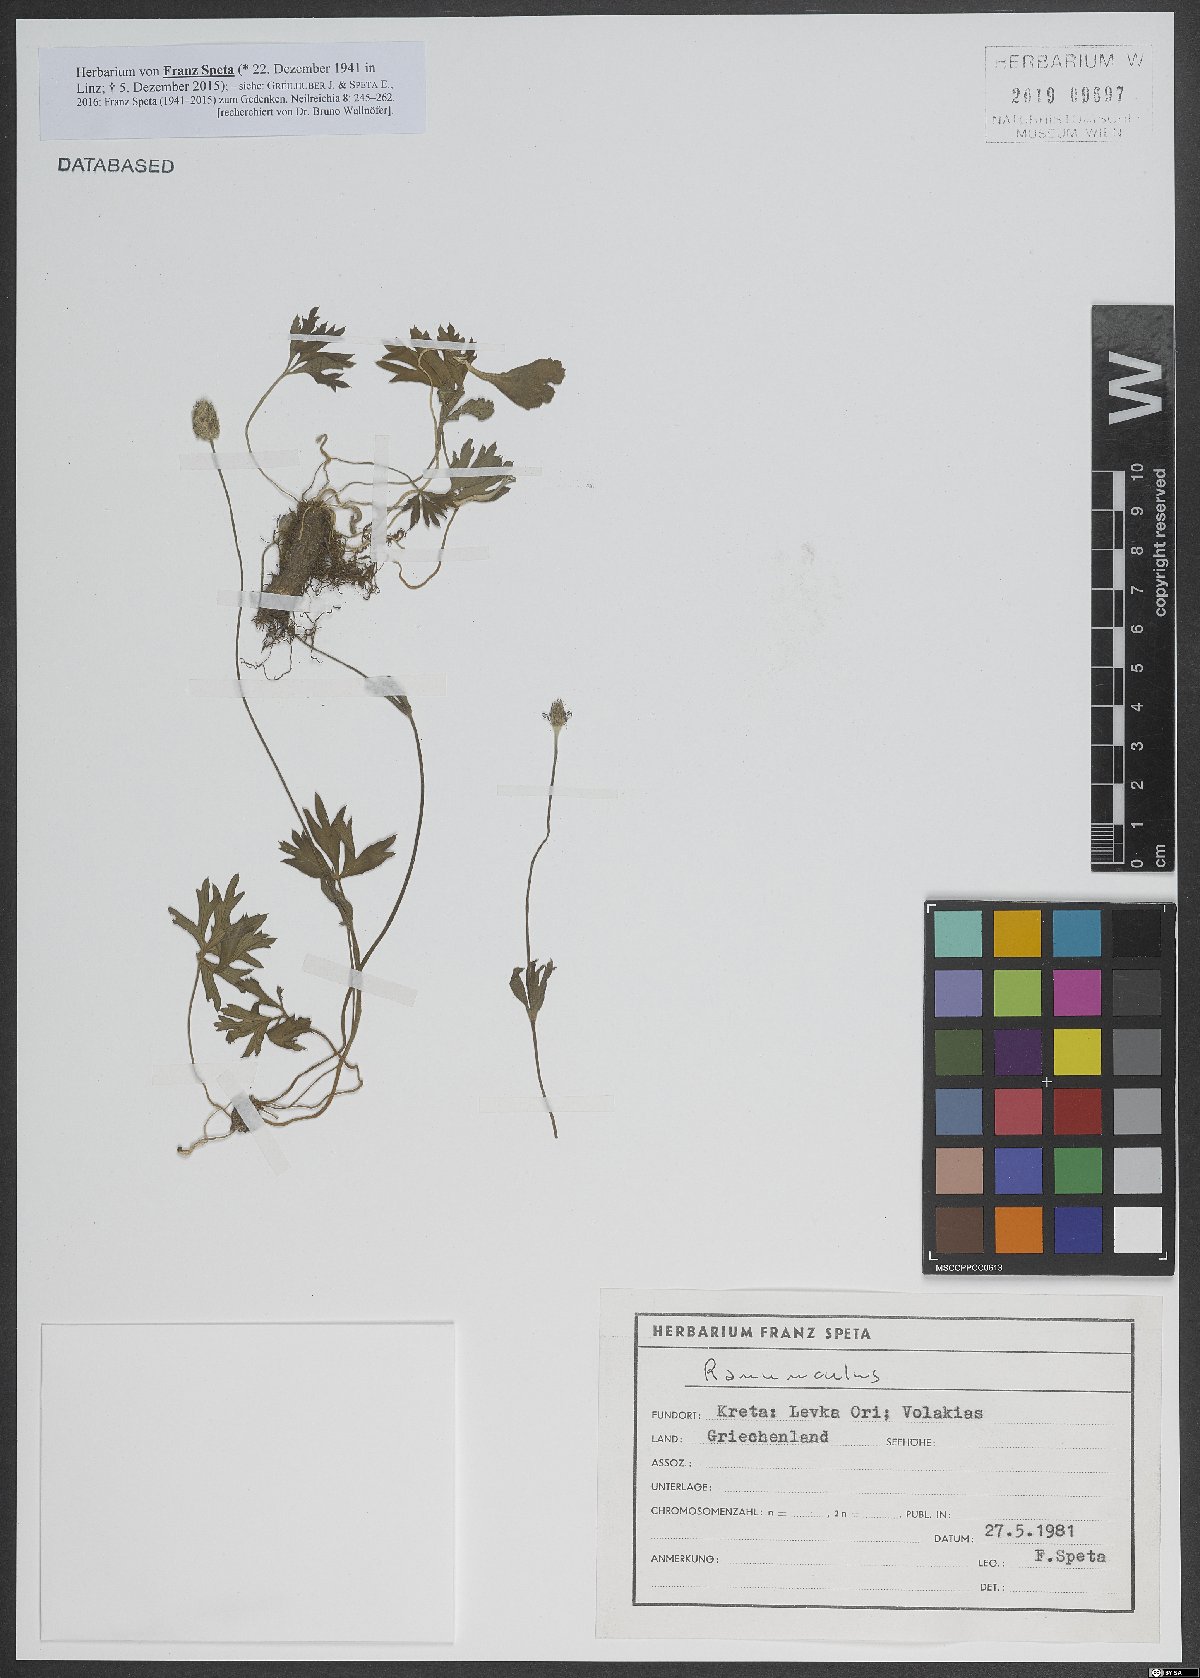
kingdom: Plantae
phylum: Tracheophyta
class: Magnoliopsida
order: Ranunculales
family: Ranunculaceae
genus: Ranunculus
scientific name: Ranunculus
